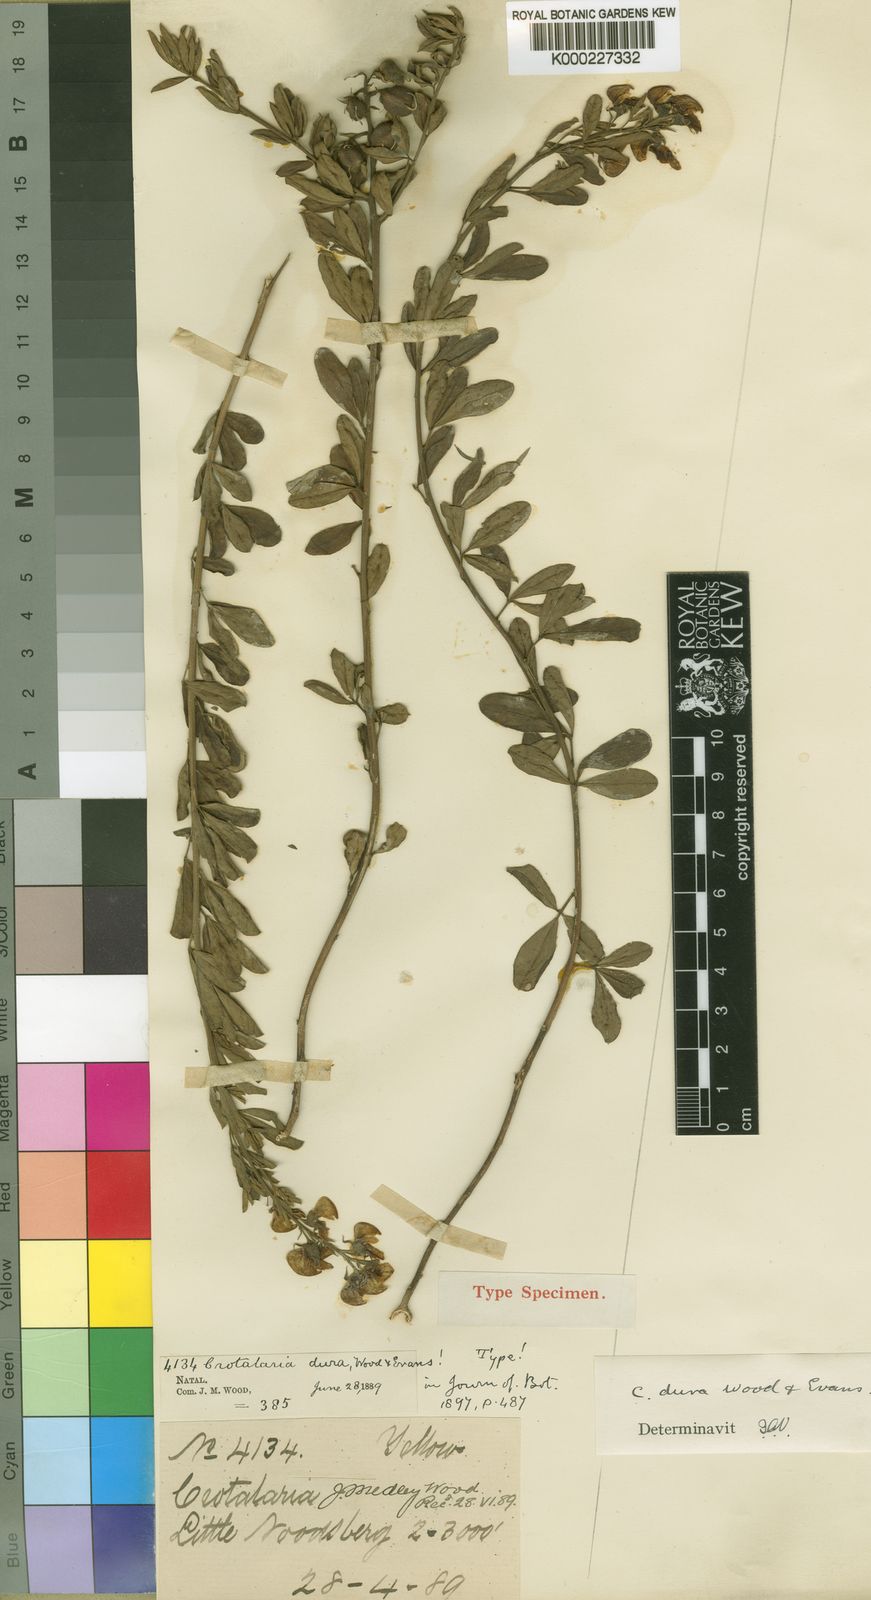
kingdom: Plantae
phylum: Tracheophyta
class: Magnoliopsida
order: Fabales
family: Fabaceae
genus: Crotalaria
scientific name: Crotalaria dura
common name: Wild lucerne
